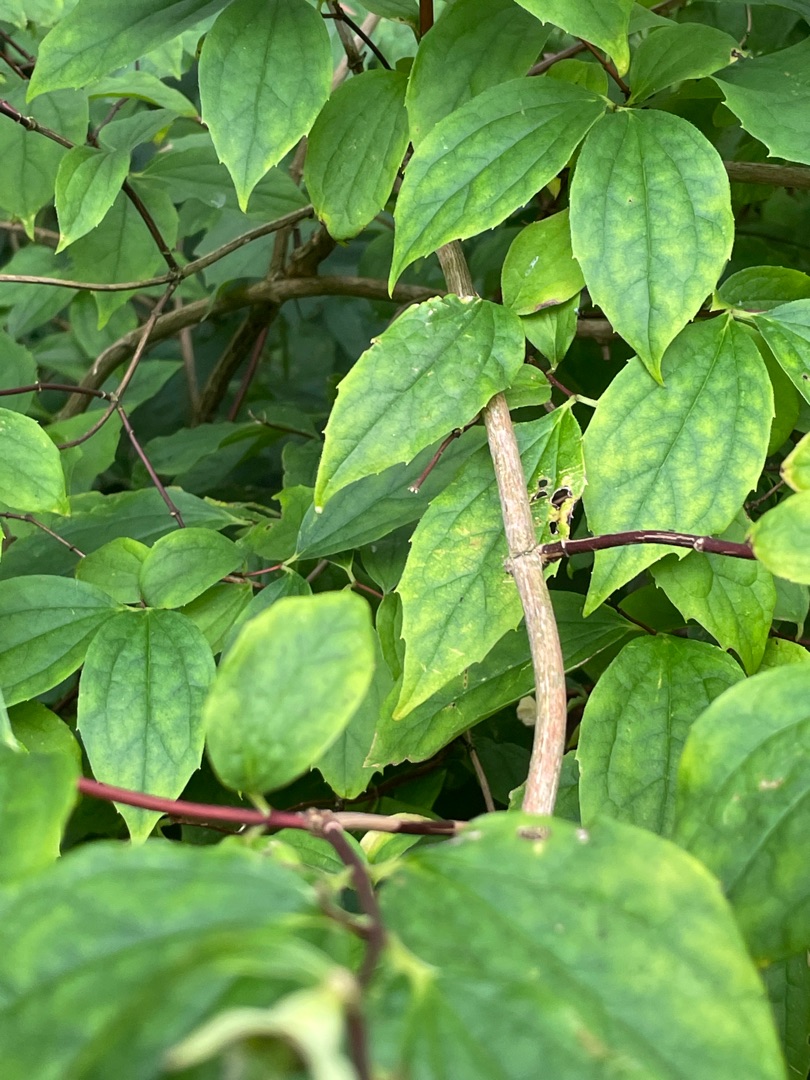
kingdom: Plantae
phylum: Tracheophyta
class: Magnoliopsida
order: Cornales
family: Hydrangeaceae
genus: Philadelphus
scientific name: Philadelphus coronarius
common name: Almindelig pibeved
